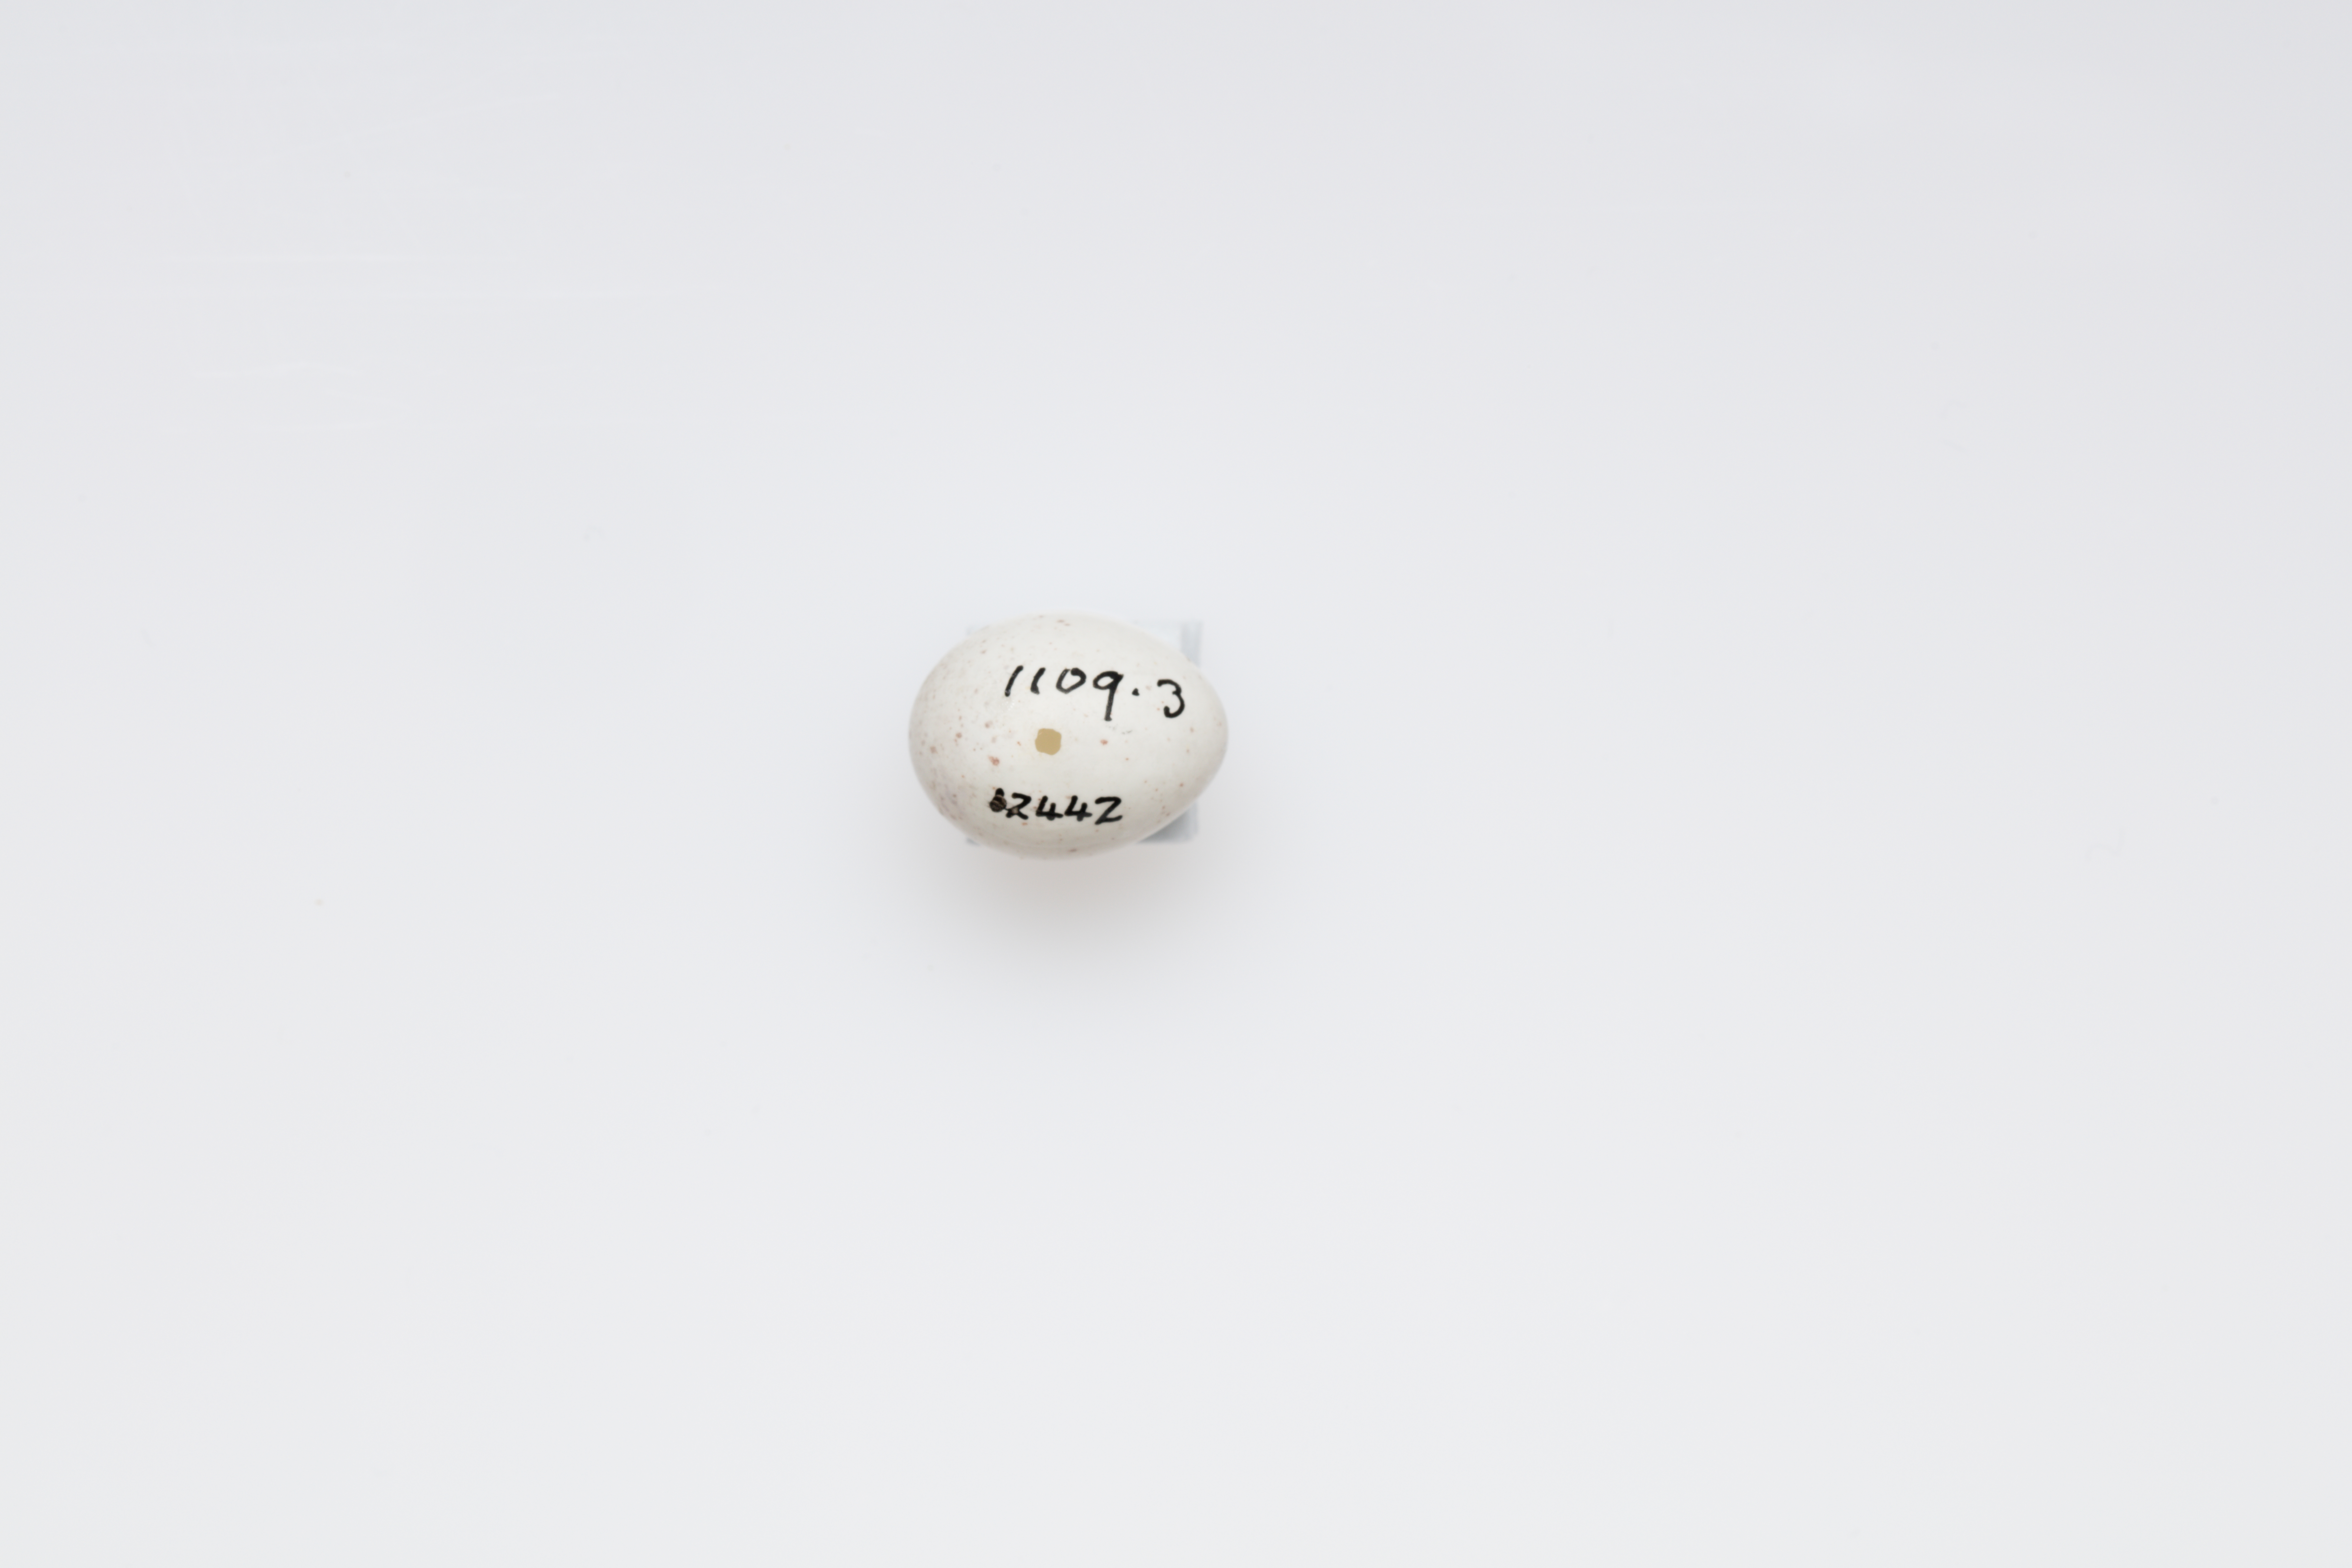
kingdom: Animalia
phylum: Chordata
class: Aves
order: Passeriformes
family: Aegithalidae
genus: Aegithalos
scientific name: Aegithalos caudatus
